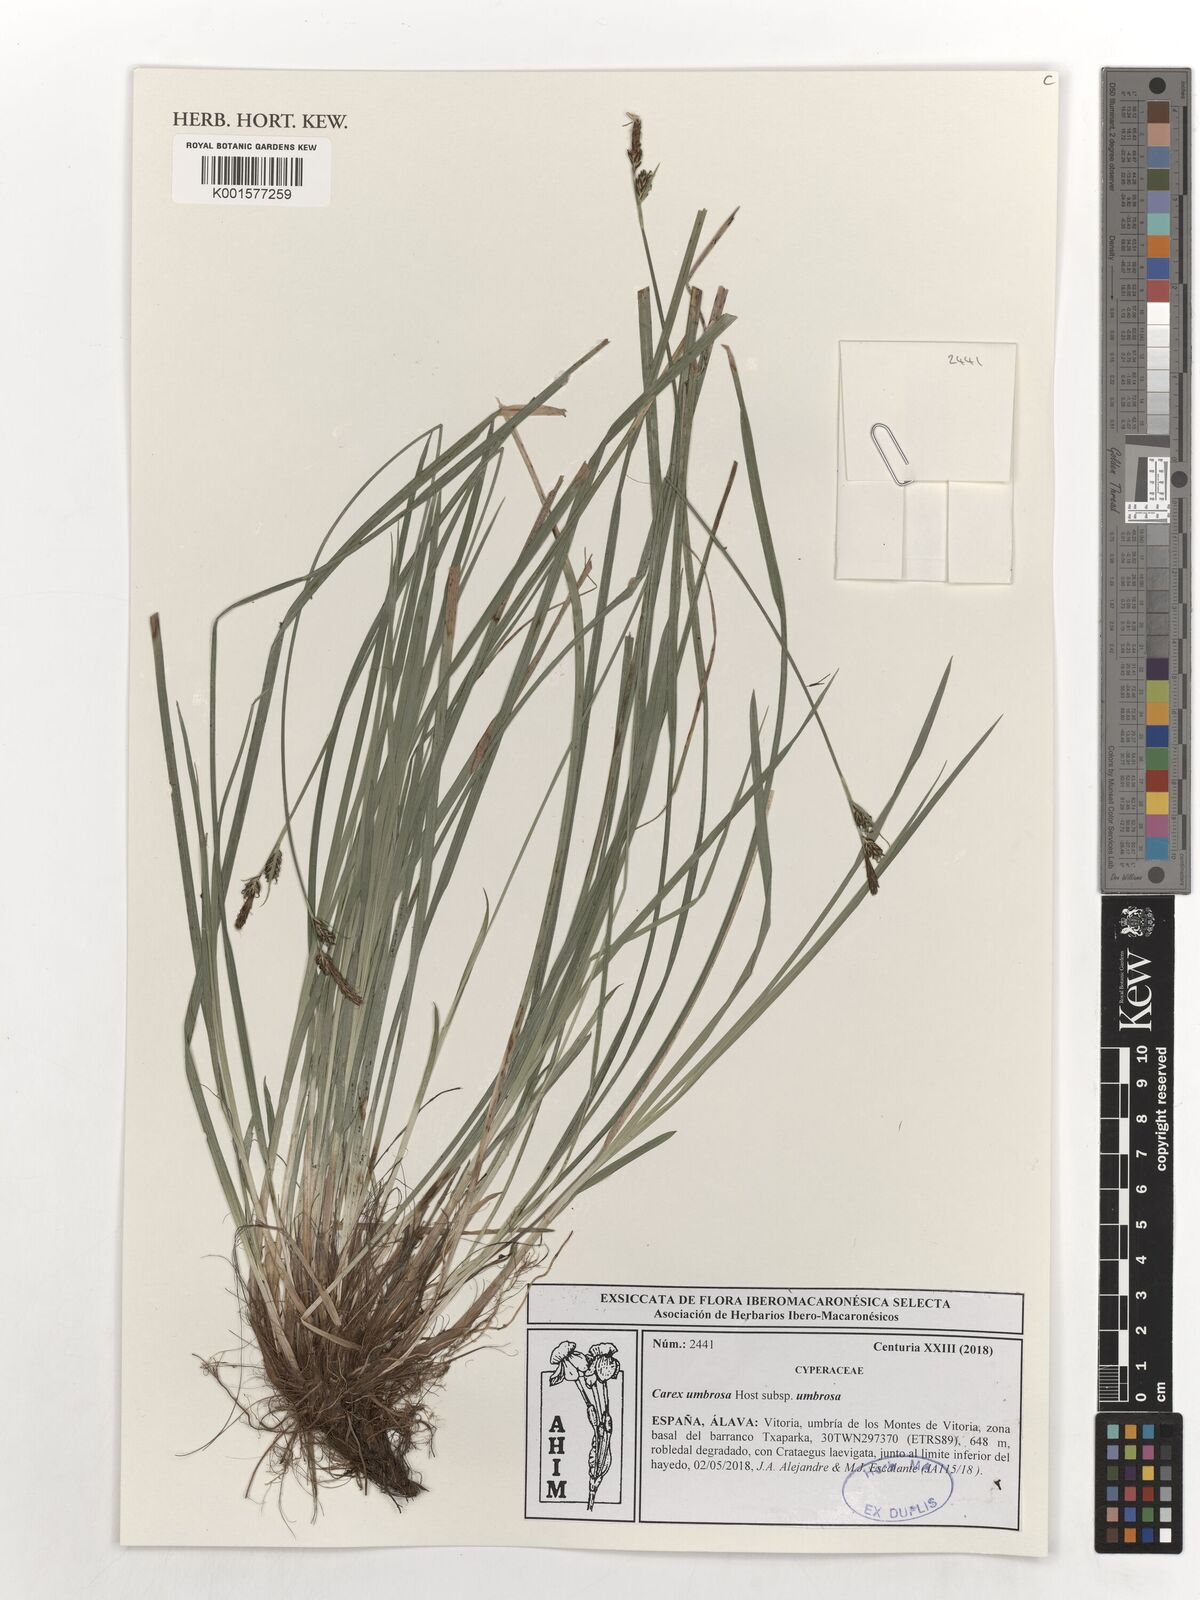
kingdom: Plantae
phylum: Tracheophyta
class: Liliopsida
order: Poales
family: Cyperaceae
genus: Carex
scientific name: Carex umbrosa
